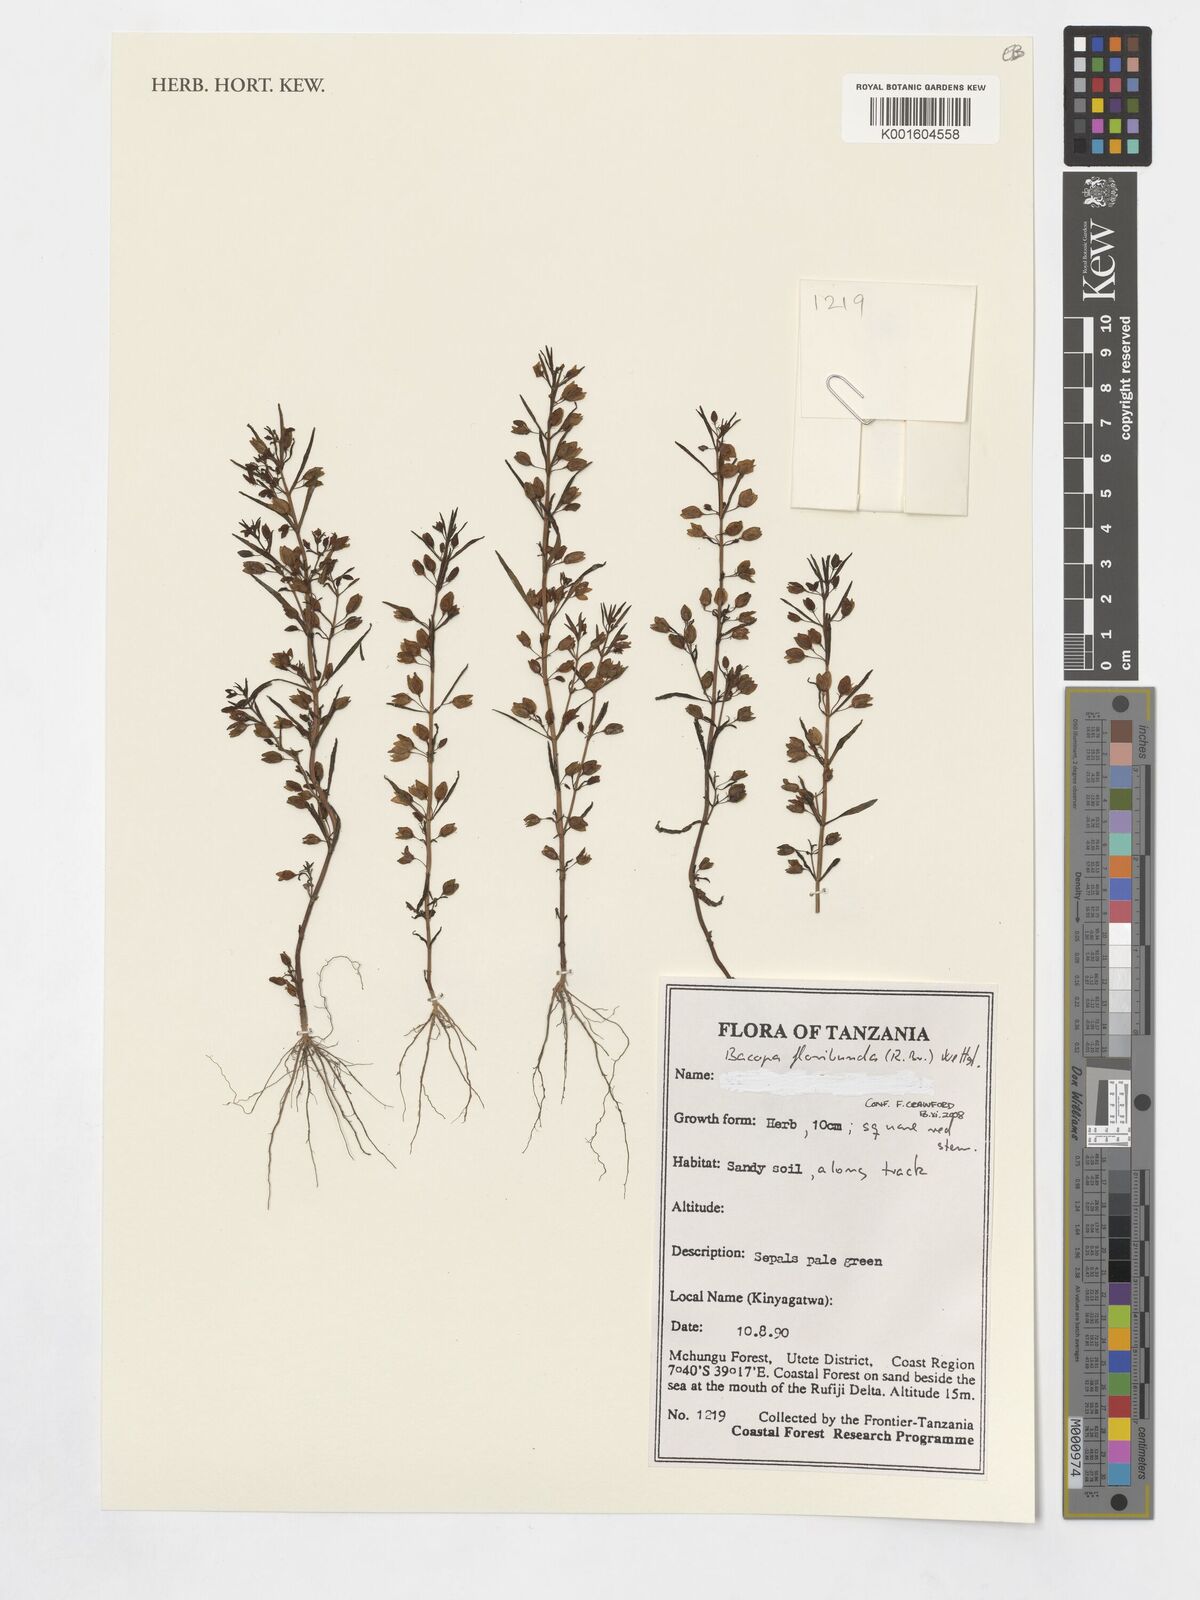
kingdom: Plantae
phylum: Tracheophyta
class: Magnoliopsida
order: Lamiales
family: Plantaginaceae
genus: Bacopa
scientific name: Bacopa floribunda
